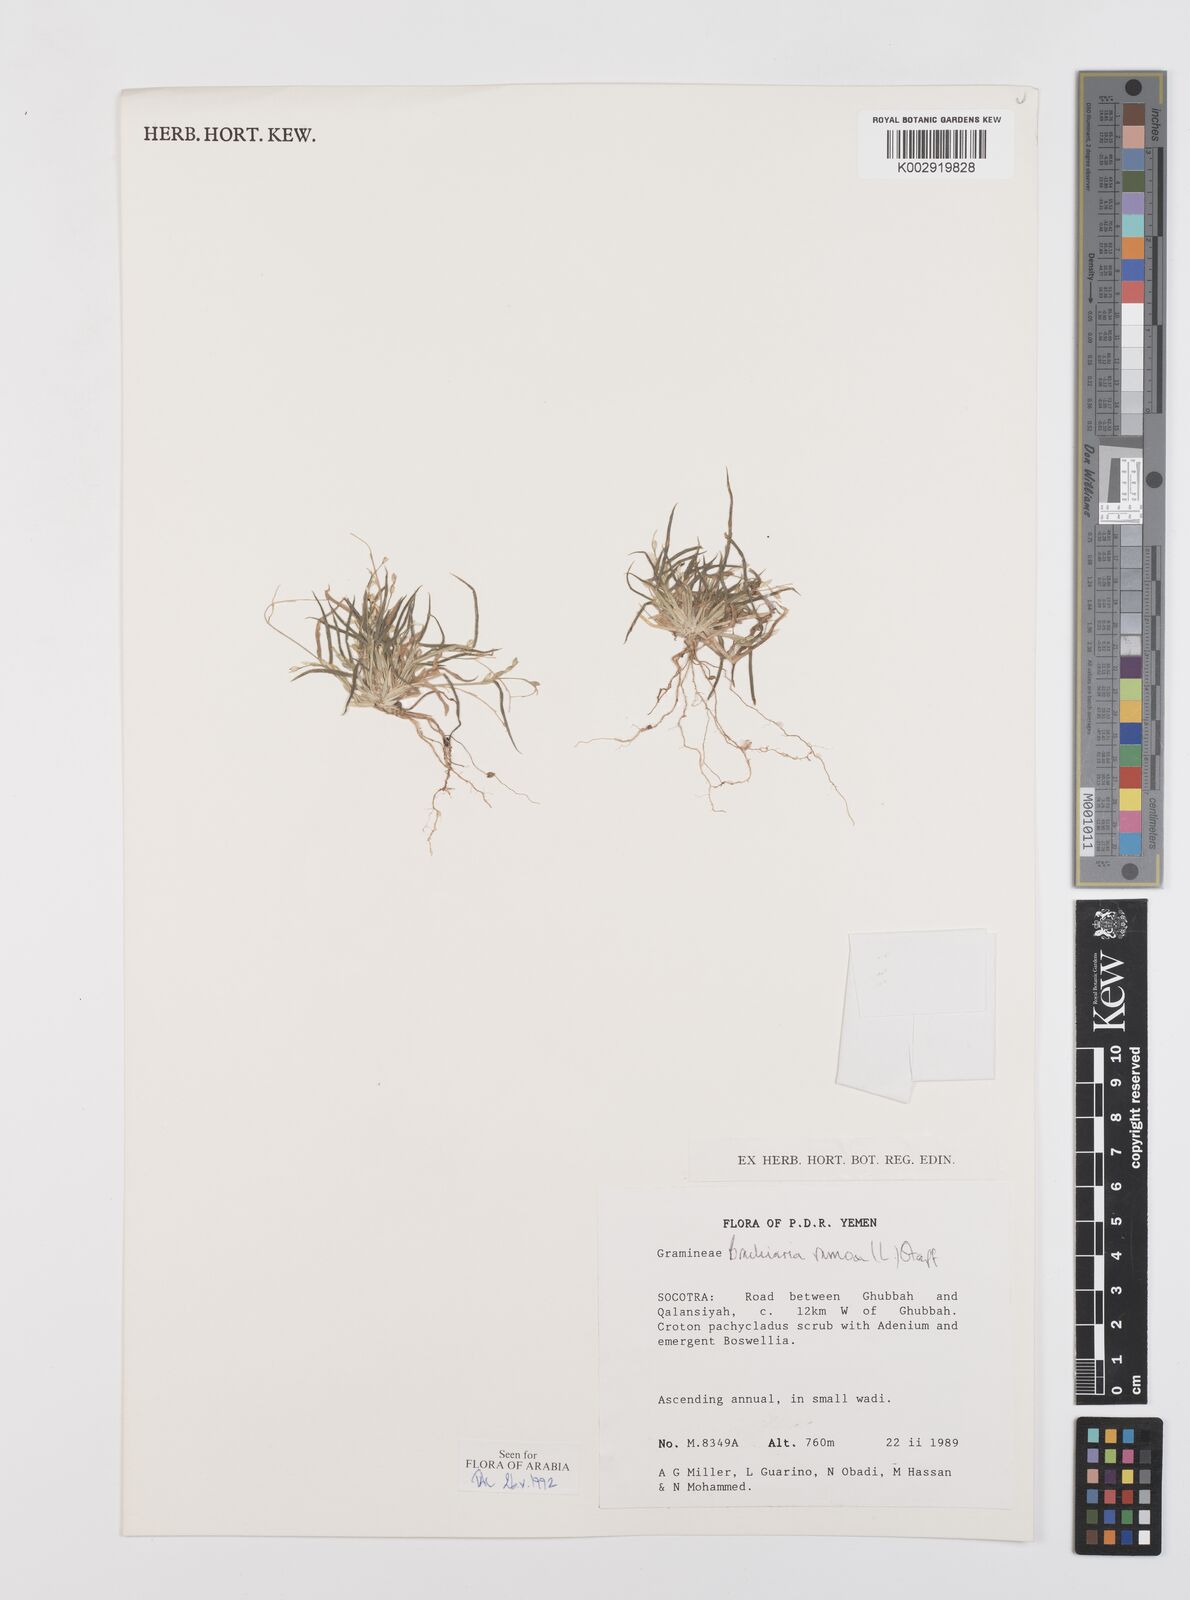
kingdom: Plantae
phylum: Tracheophyta
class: Liliopsida
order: Poales
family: Poaceae
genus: Urochloa
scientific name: Urochloa ramosa
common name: Browntop millet
